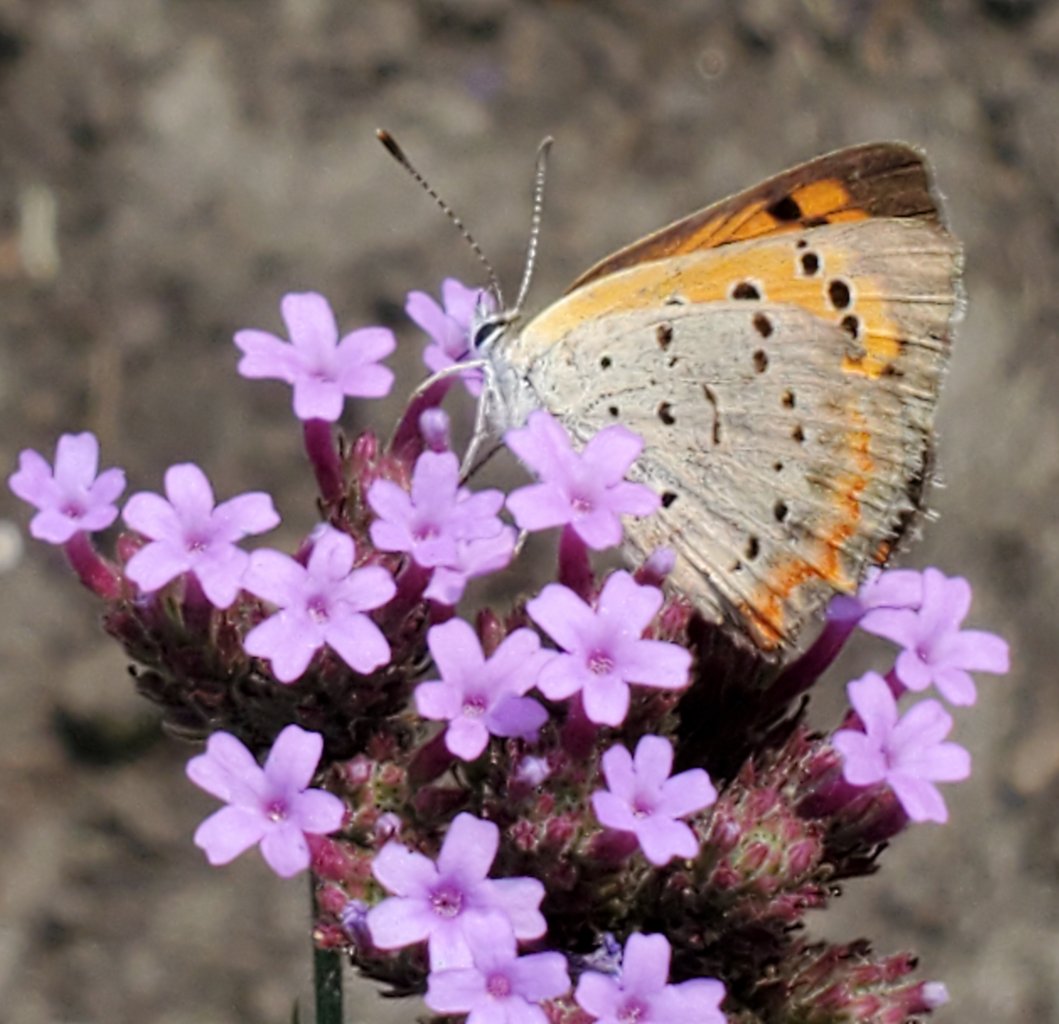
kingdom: Animalia
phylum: Arthropoda
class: Insecta
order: Lepidoptera
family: Lycaenidae
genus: Lycaena
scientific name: Lycaena phlaeas
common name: American Copper
